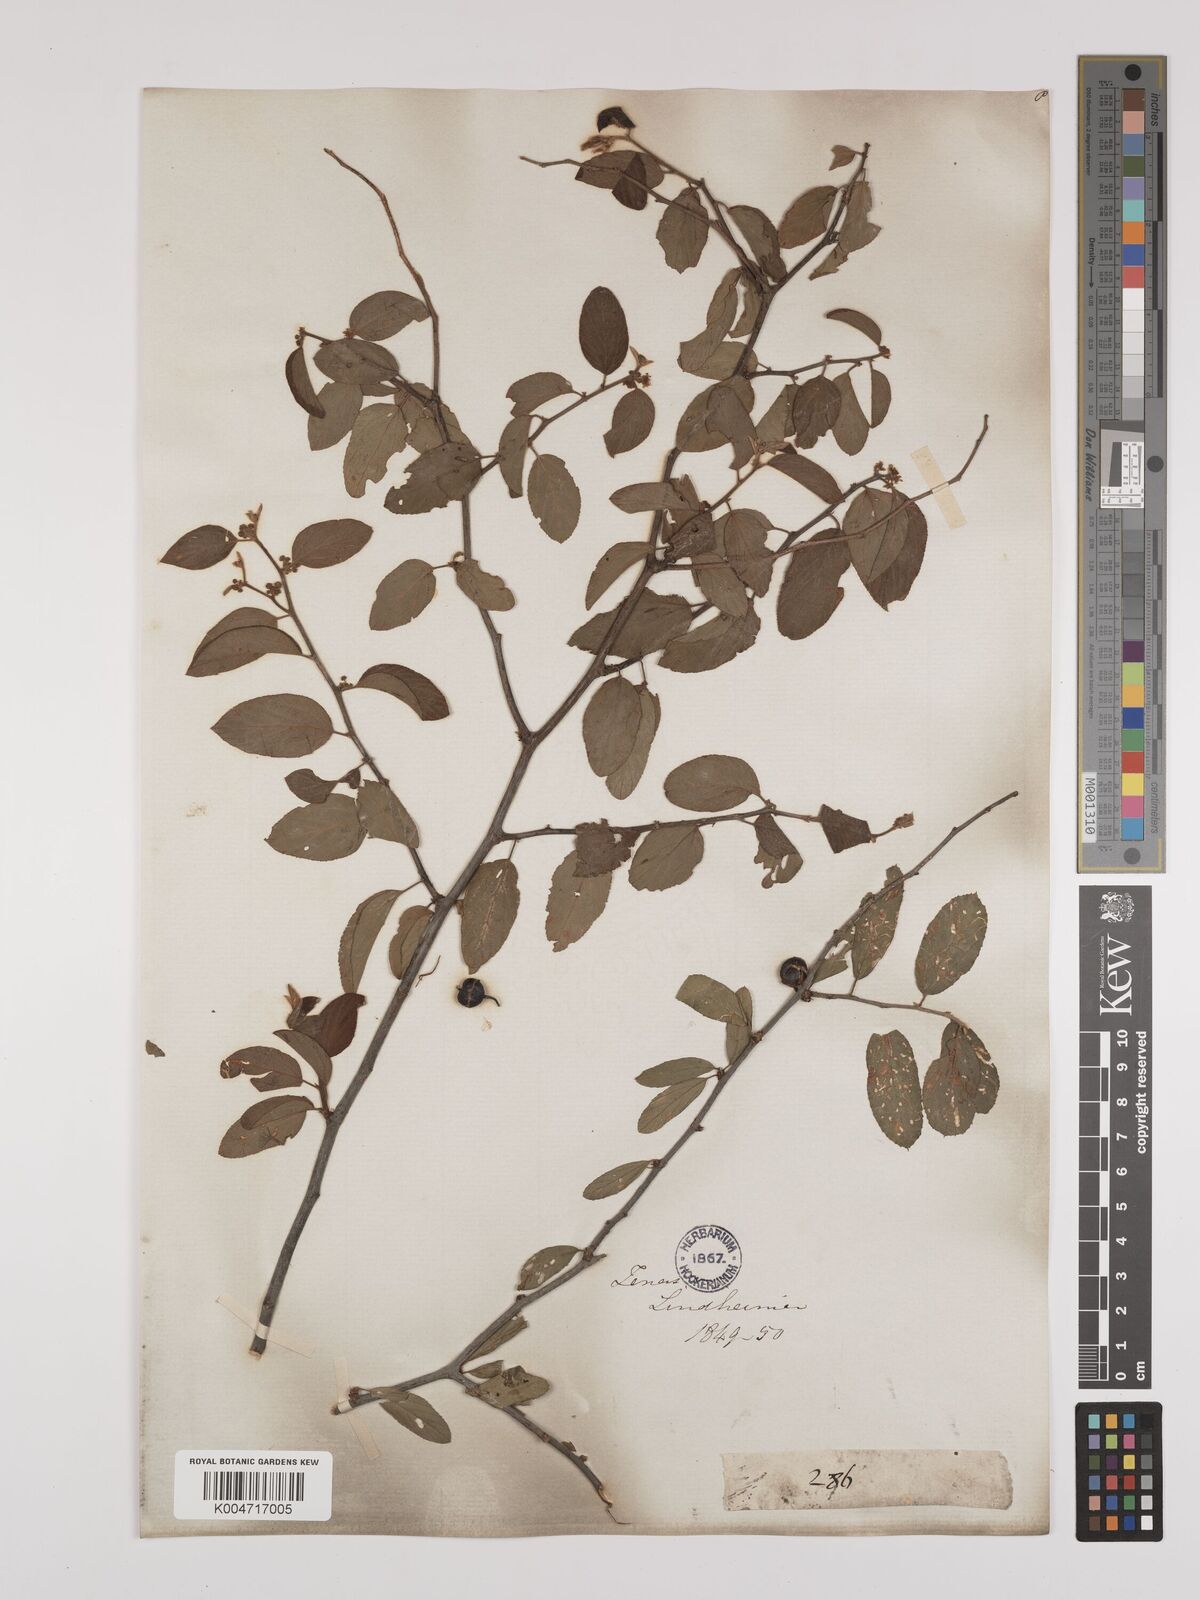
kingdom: Plantae
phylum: Tracheophyta
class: Magnoliopsida
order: Rosales
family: Rhamnaceae
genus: Colubrina
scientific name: Colubrina
